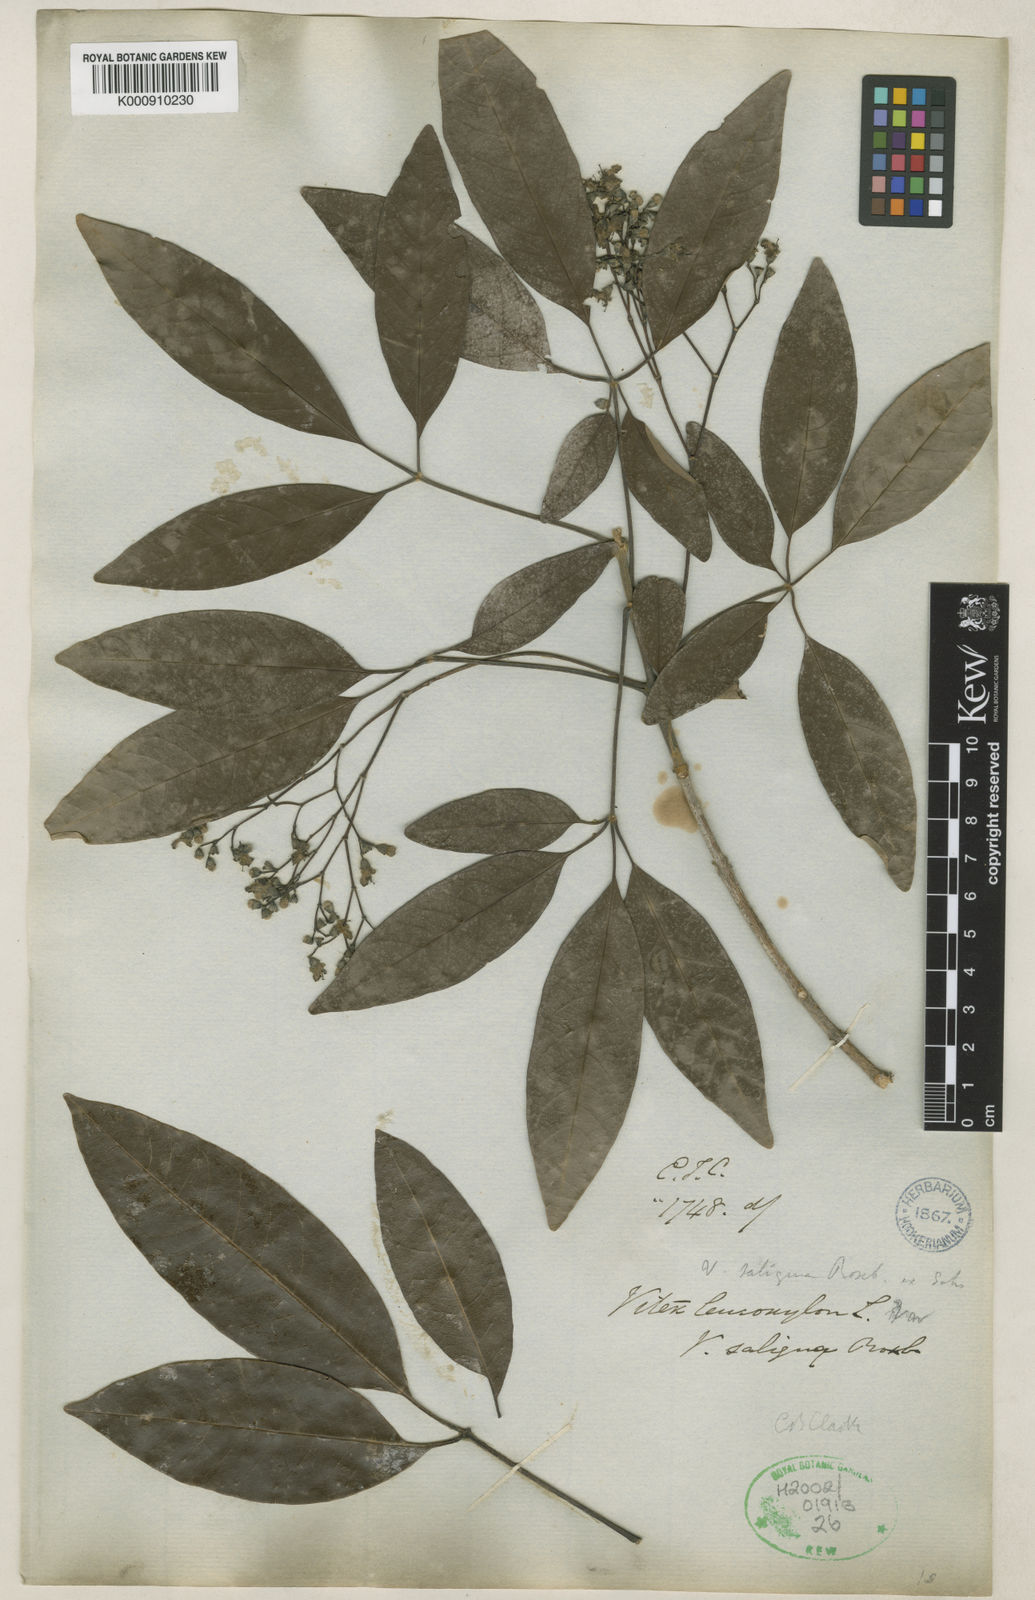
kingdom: Plantae
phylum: Tracheophyta
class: Magnoliopsida
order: Lamiales
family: Lamiaceae
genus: Vitex
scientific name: Vitex leucoxylon
